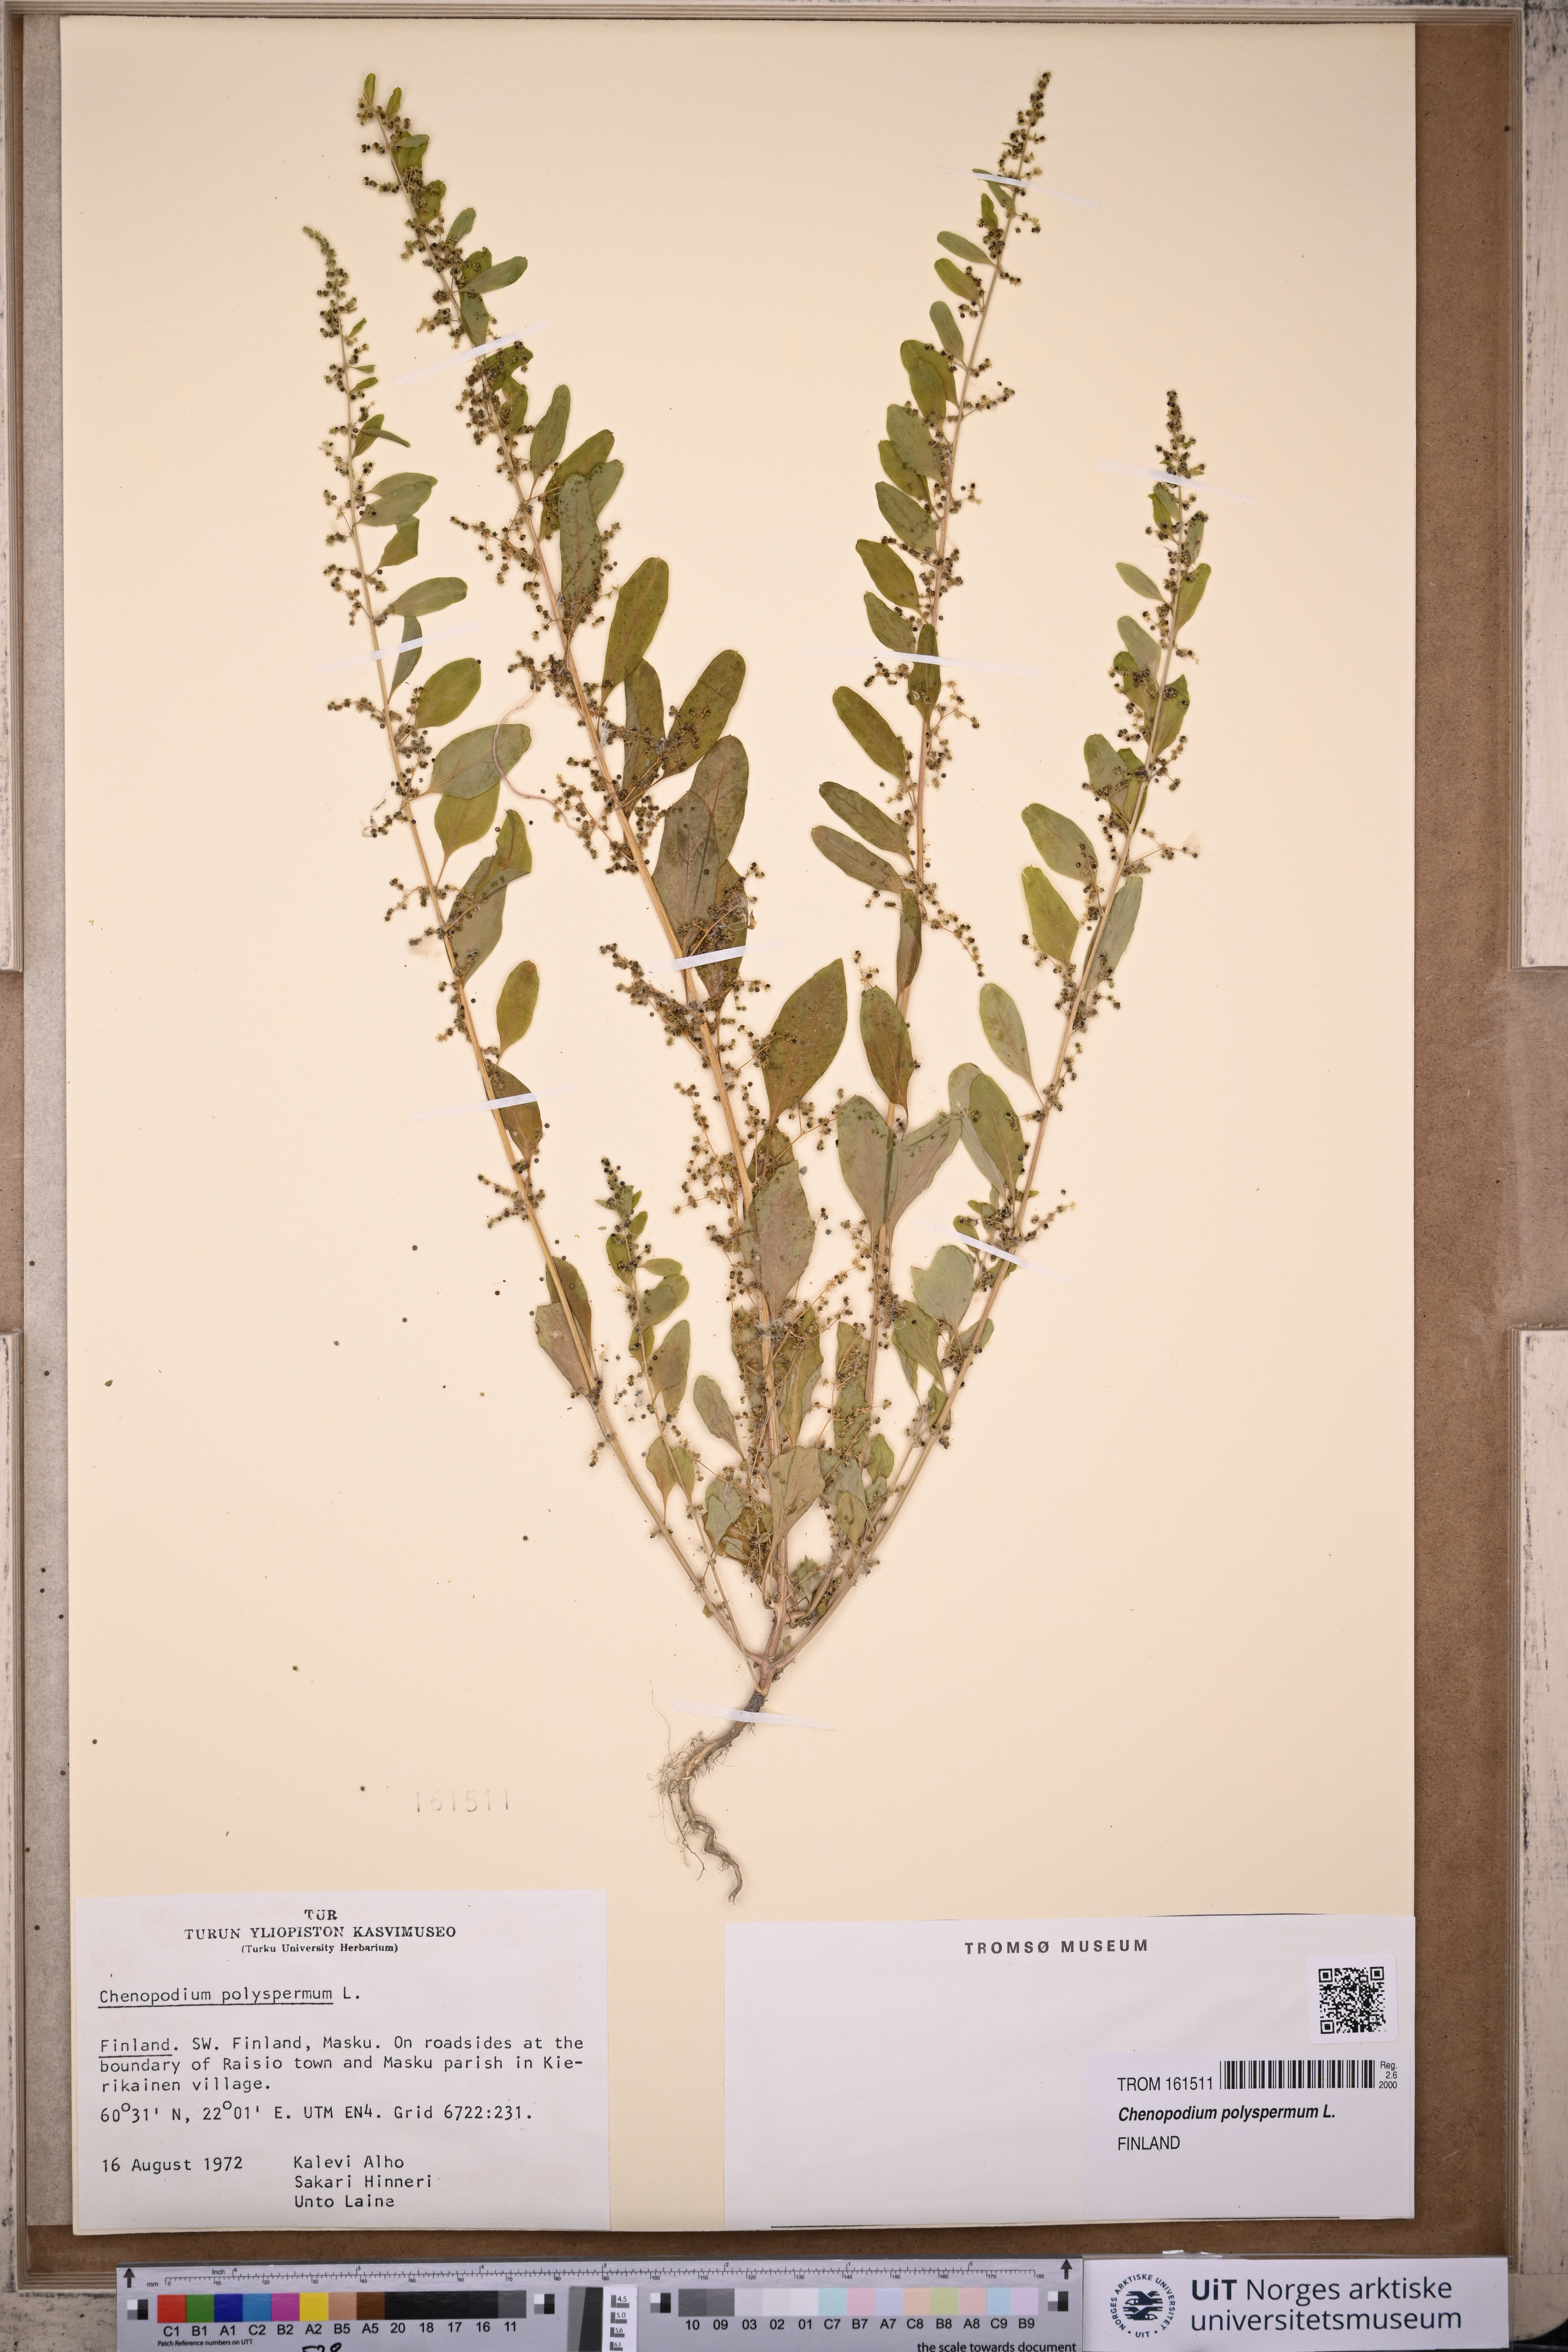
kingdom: Plantae
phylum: Tracheophyta
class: Magnoliopsida
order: Caryophyllales
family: Amaranthaceae
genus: Lipandra
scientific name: Lipandra polysperma
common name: Many-seed goosefoot
